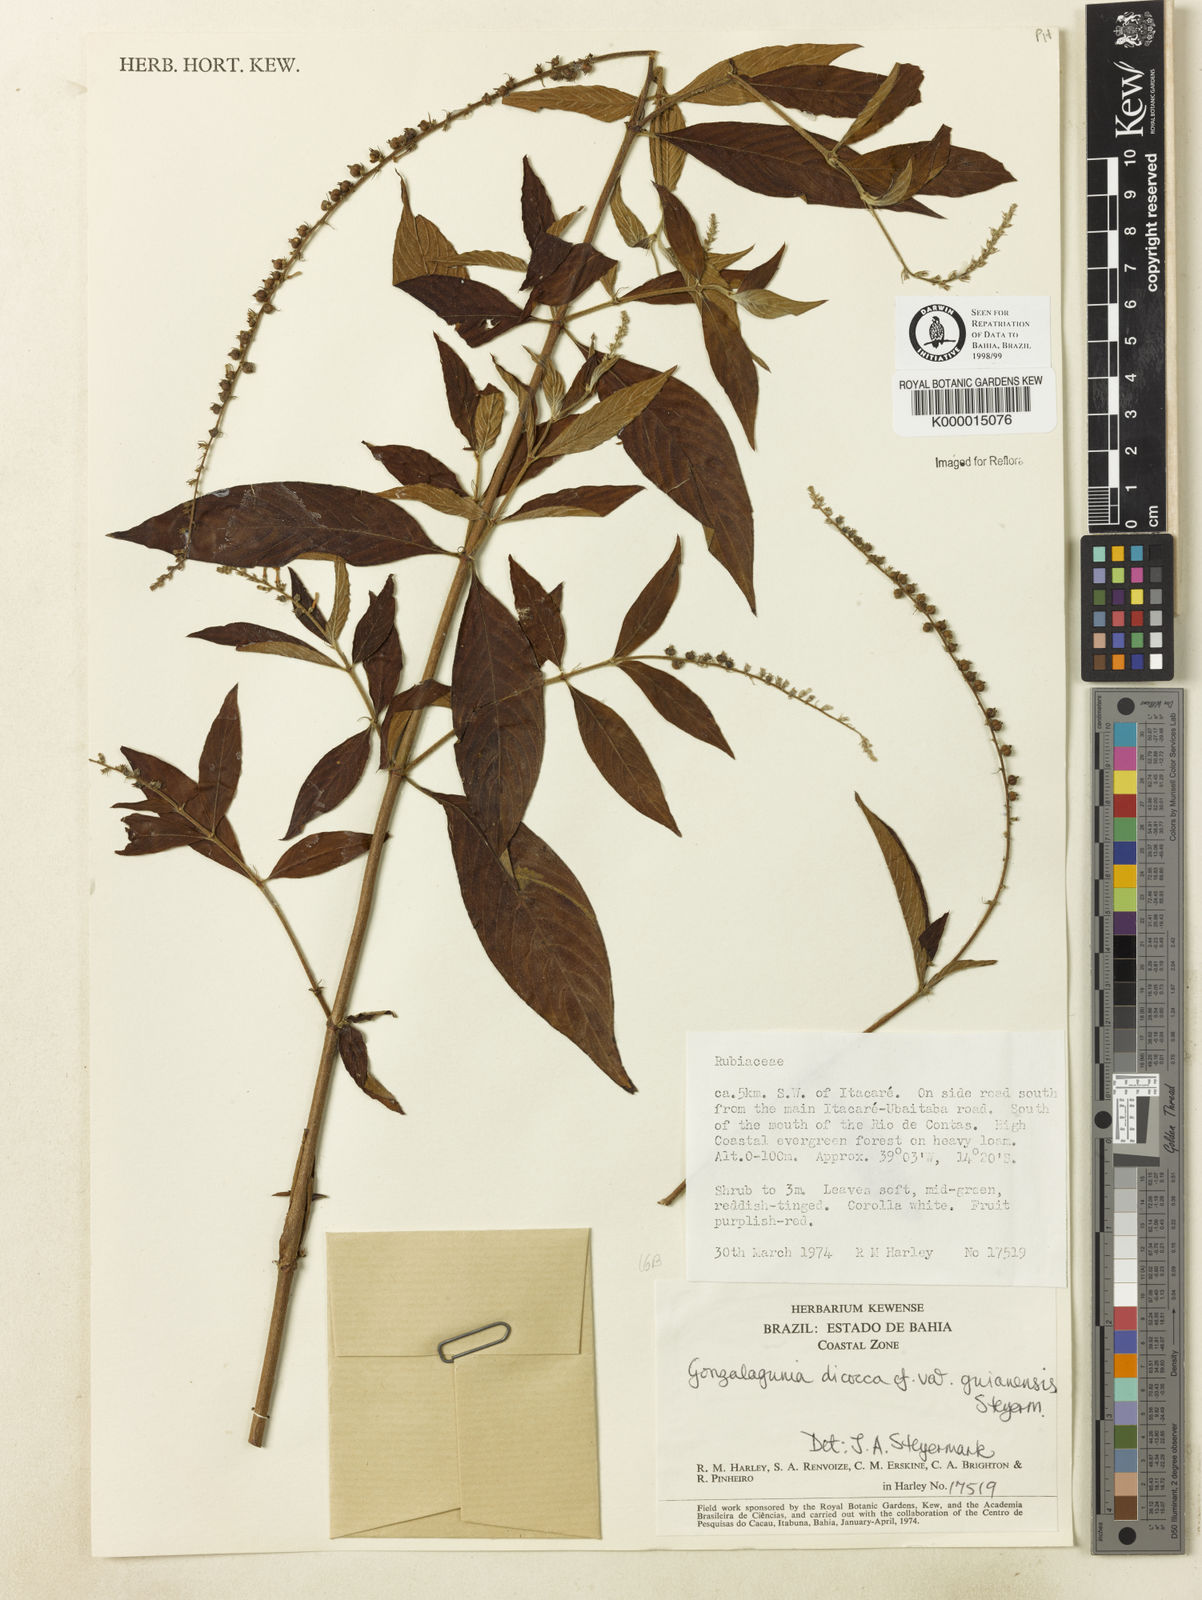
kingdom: Plantae
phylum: Tracheophyta
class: Magnoliopsida
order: Gentianales
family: Rubiaceae
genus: Gonzalagunia
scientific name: Gonzalagunia dicocca
